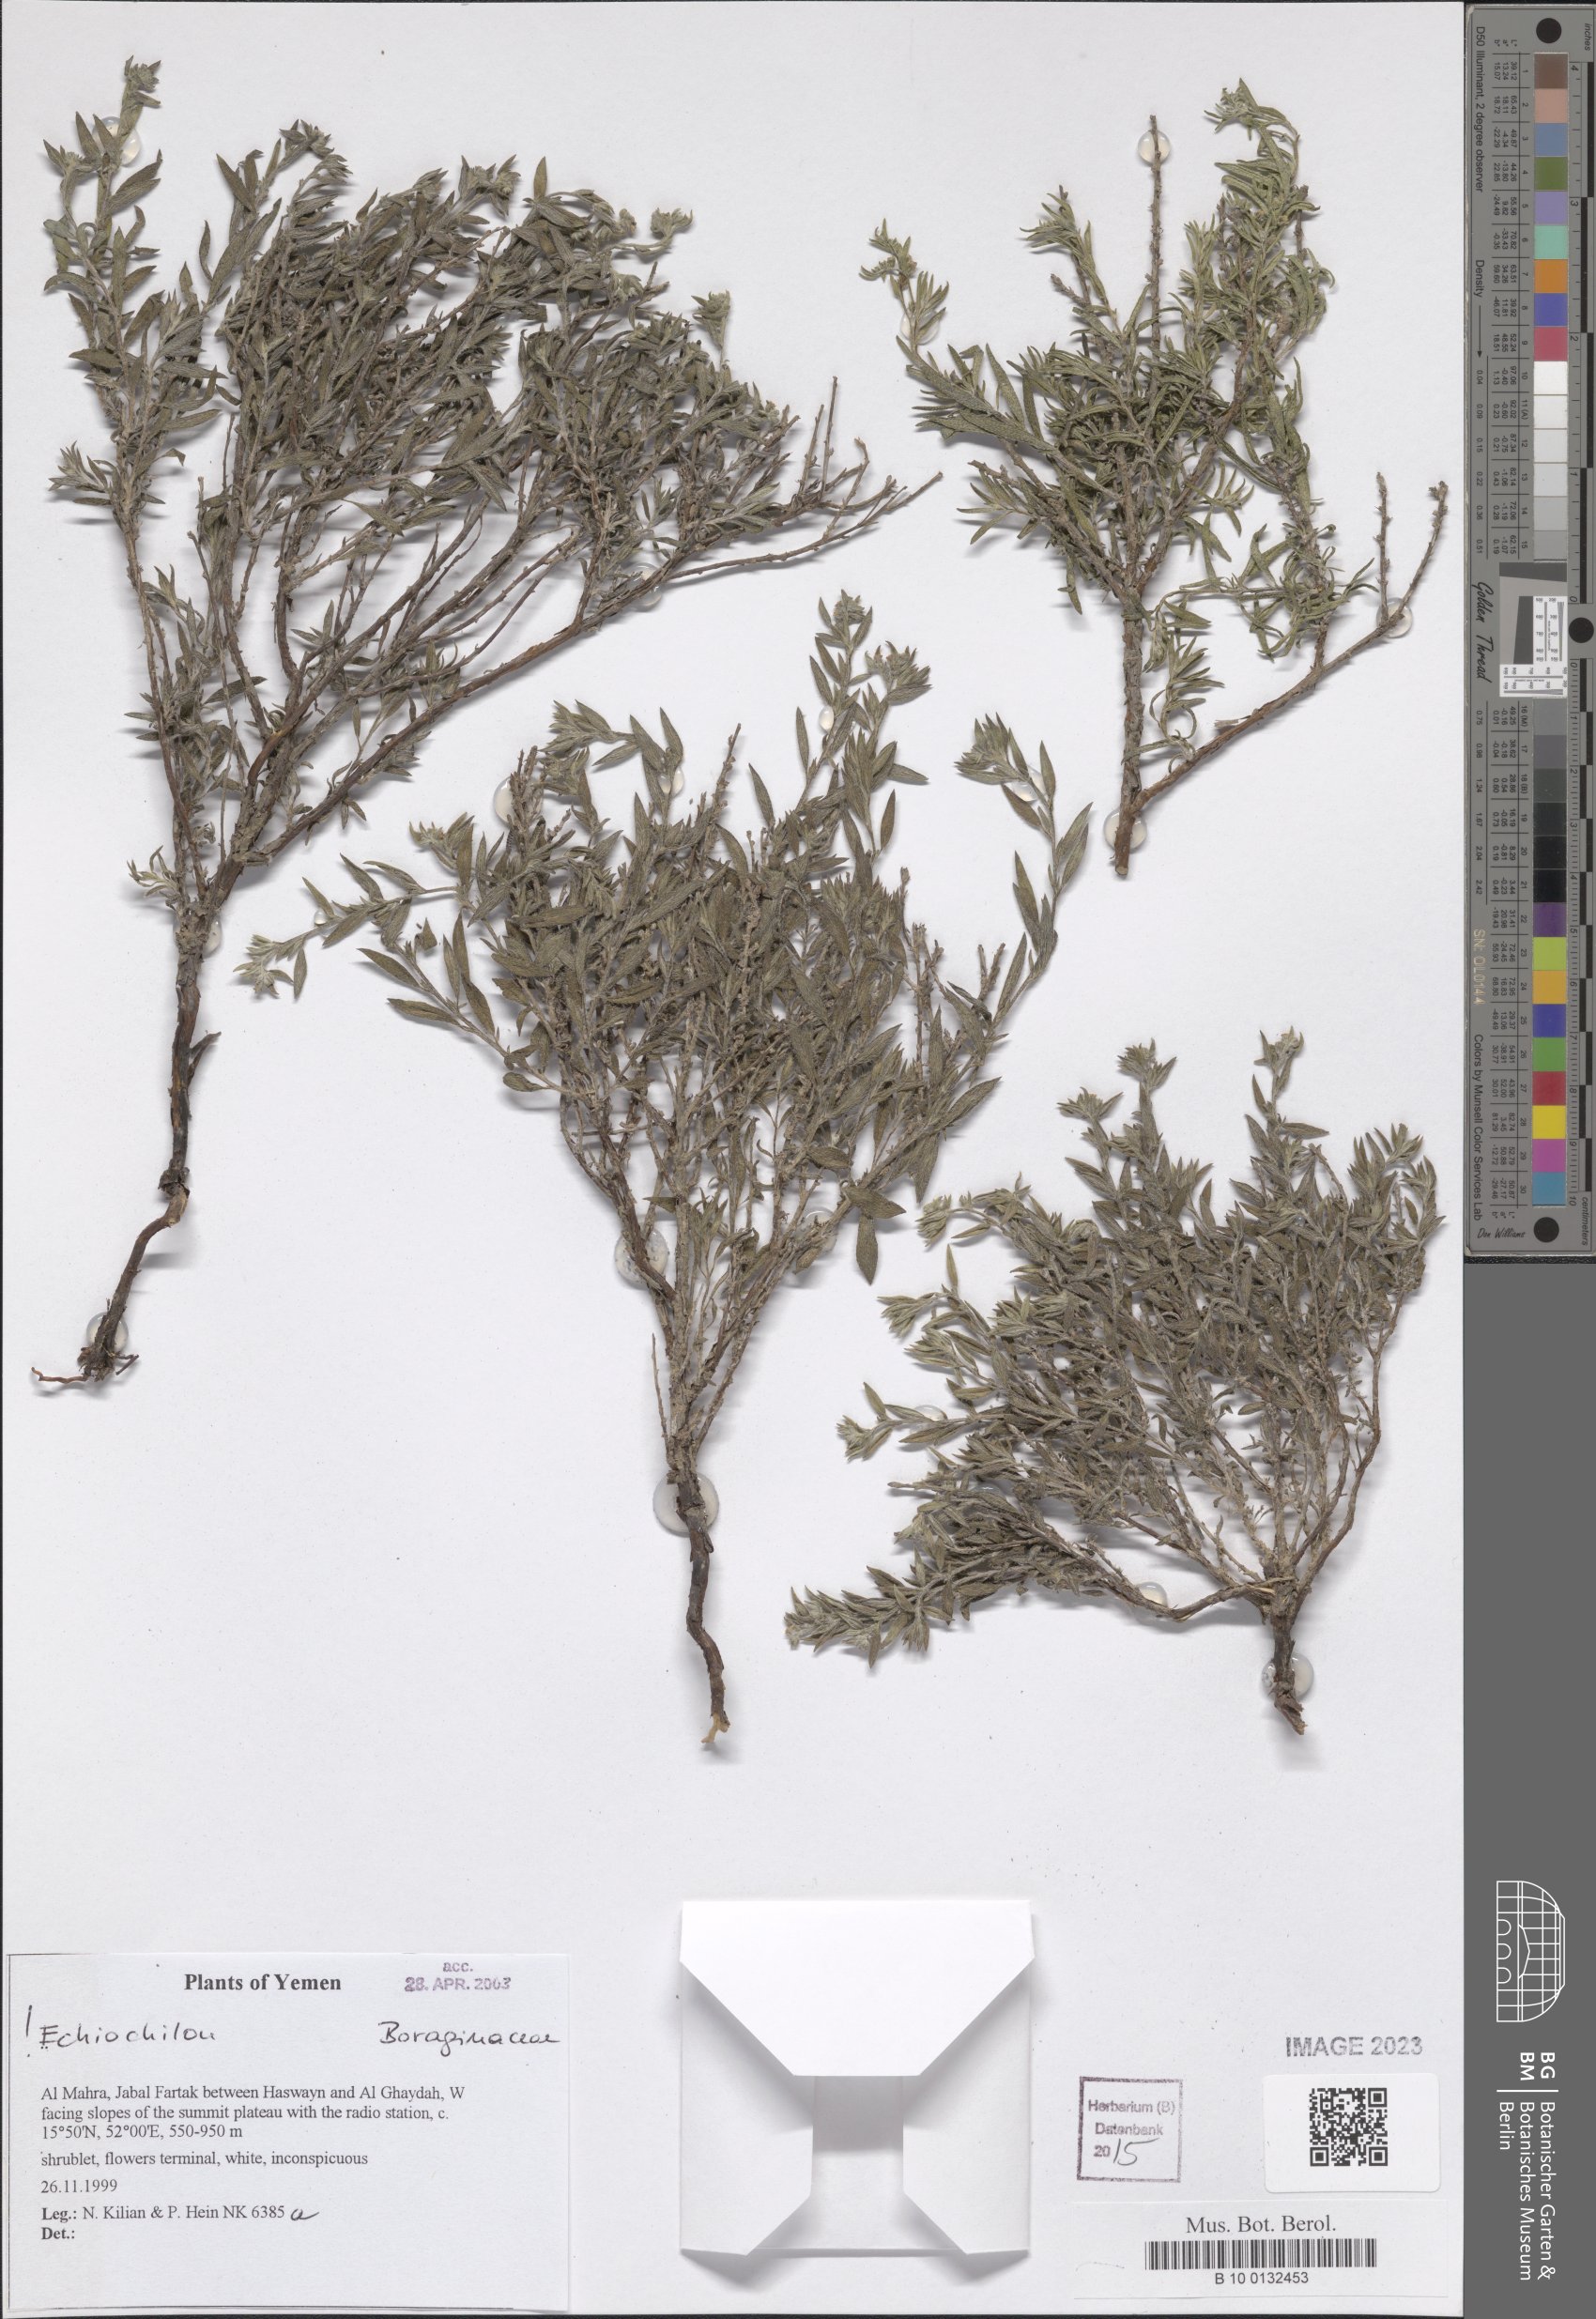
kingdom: Plantae
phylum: Tracheophyta
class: Magnoliopsida
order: Boraginales
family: Boraginaceae
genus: Echiochilon
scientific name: Echiochilon
